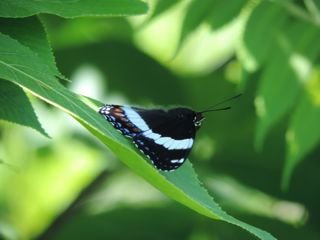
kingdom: Animalia
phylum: Arthropoda
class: Insecta
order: Lepidoptera
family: Nymphalidae
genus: Limenitis
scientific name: Limenitis arthemis
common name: Red-spotted Admiral
